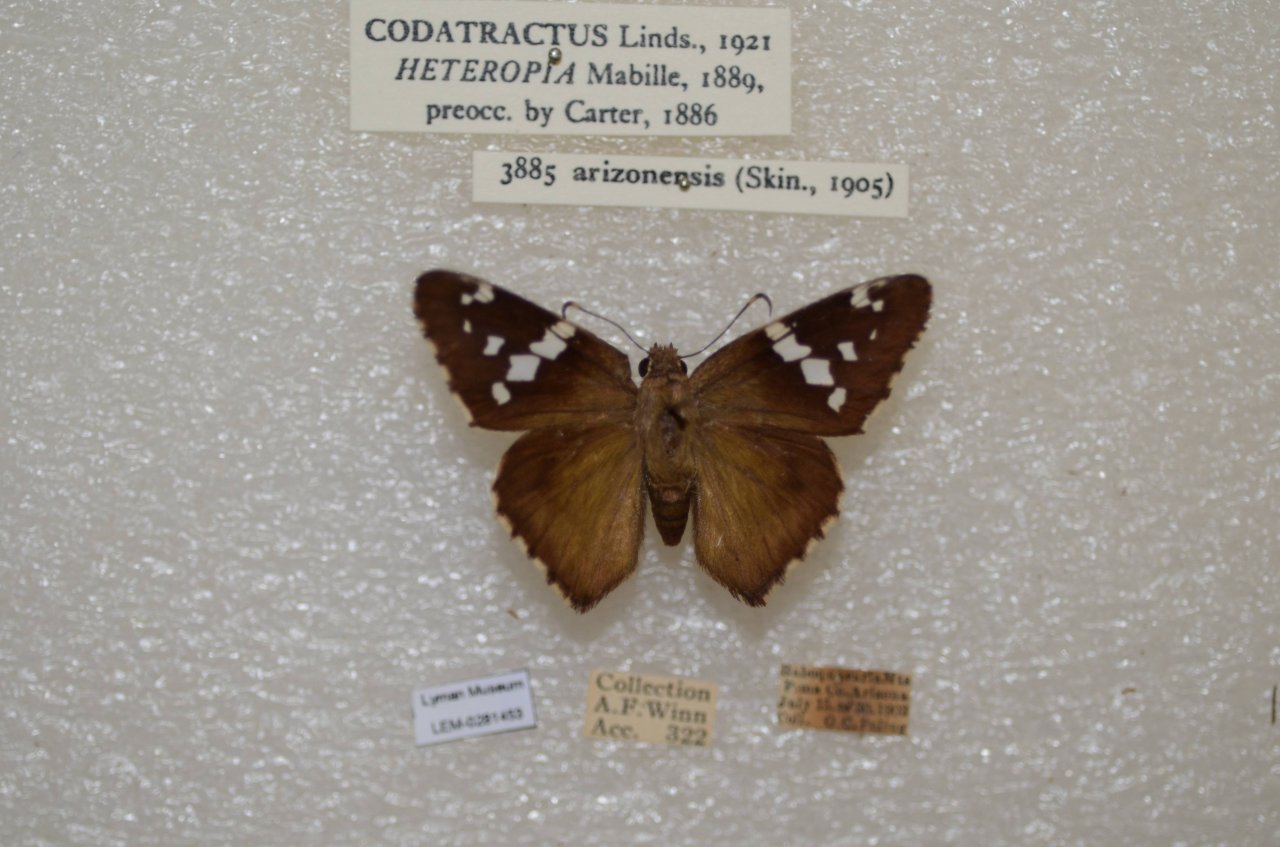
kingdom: Animalia
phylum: Arthropoda
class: Insecta
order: Lepidoptera
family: Hesperiidae
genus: Codatractus
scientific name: Codatractus arizonensis
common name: Arizona Skipper
